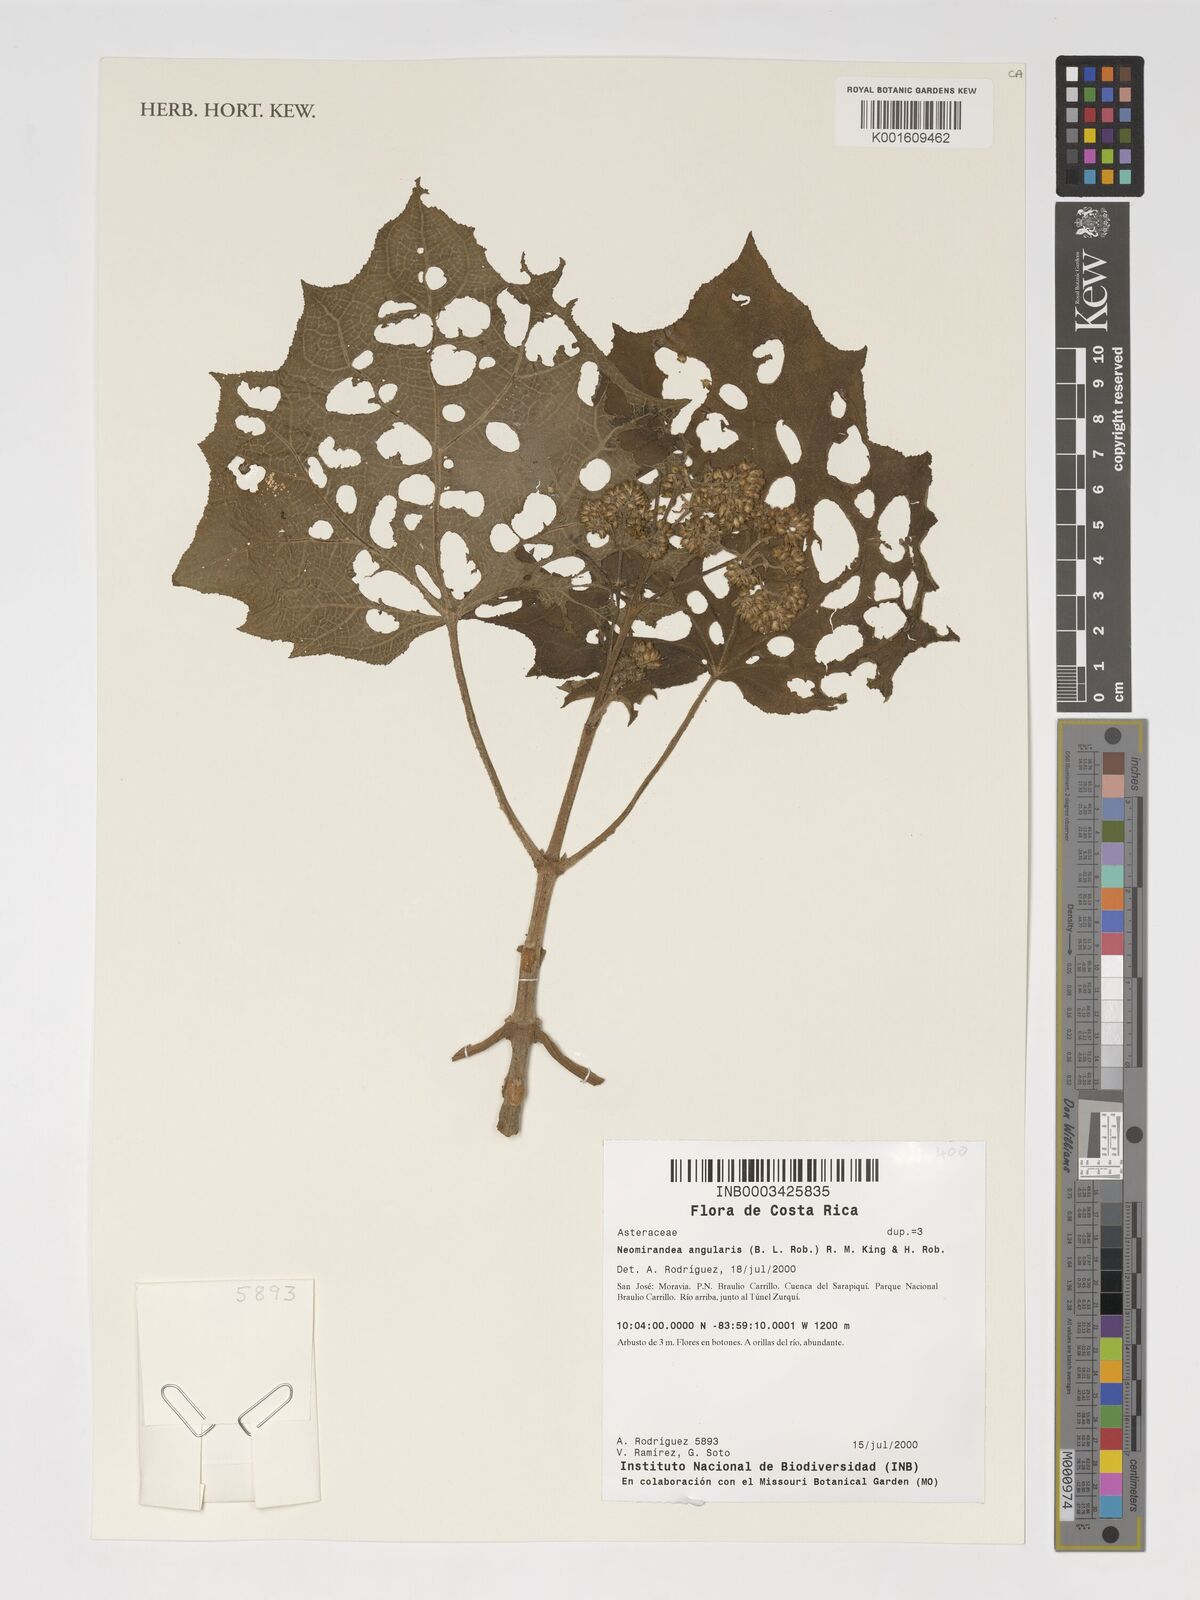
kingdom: Plantae
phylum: Tracheophyta
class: Magnoliopsida
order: Asterales
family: Asteraceae
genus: Neomirandea
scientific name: Neomirandea angularis
